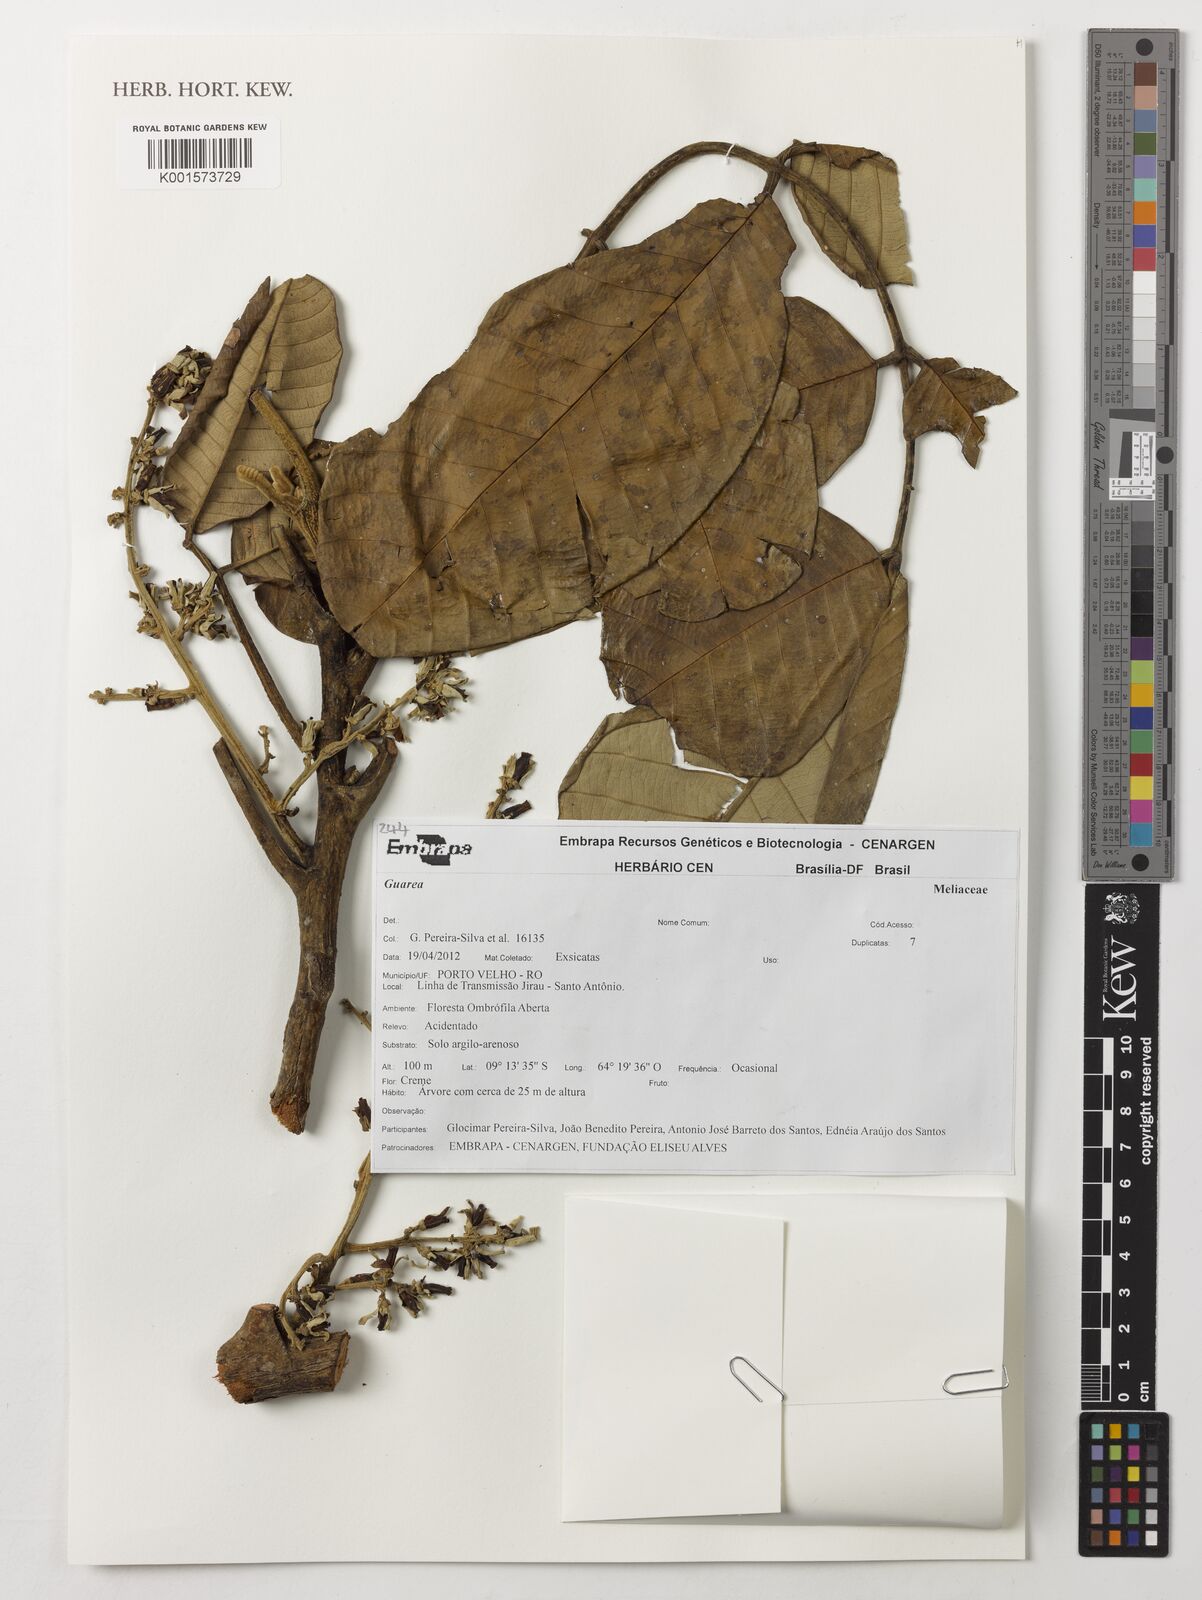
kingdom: Plantae
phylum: Tracheophyta
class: Magnoliopsida
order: Sapindales
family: Meliaceae
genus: Guarea
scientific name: Guarea
